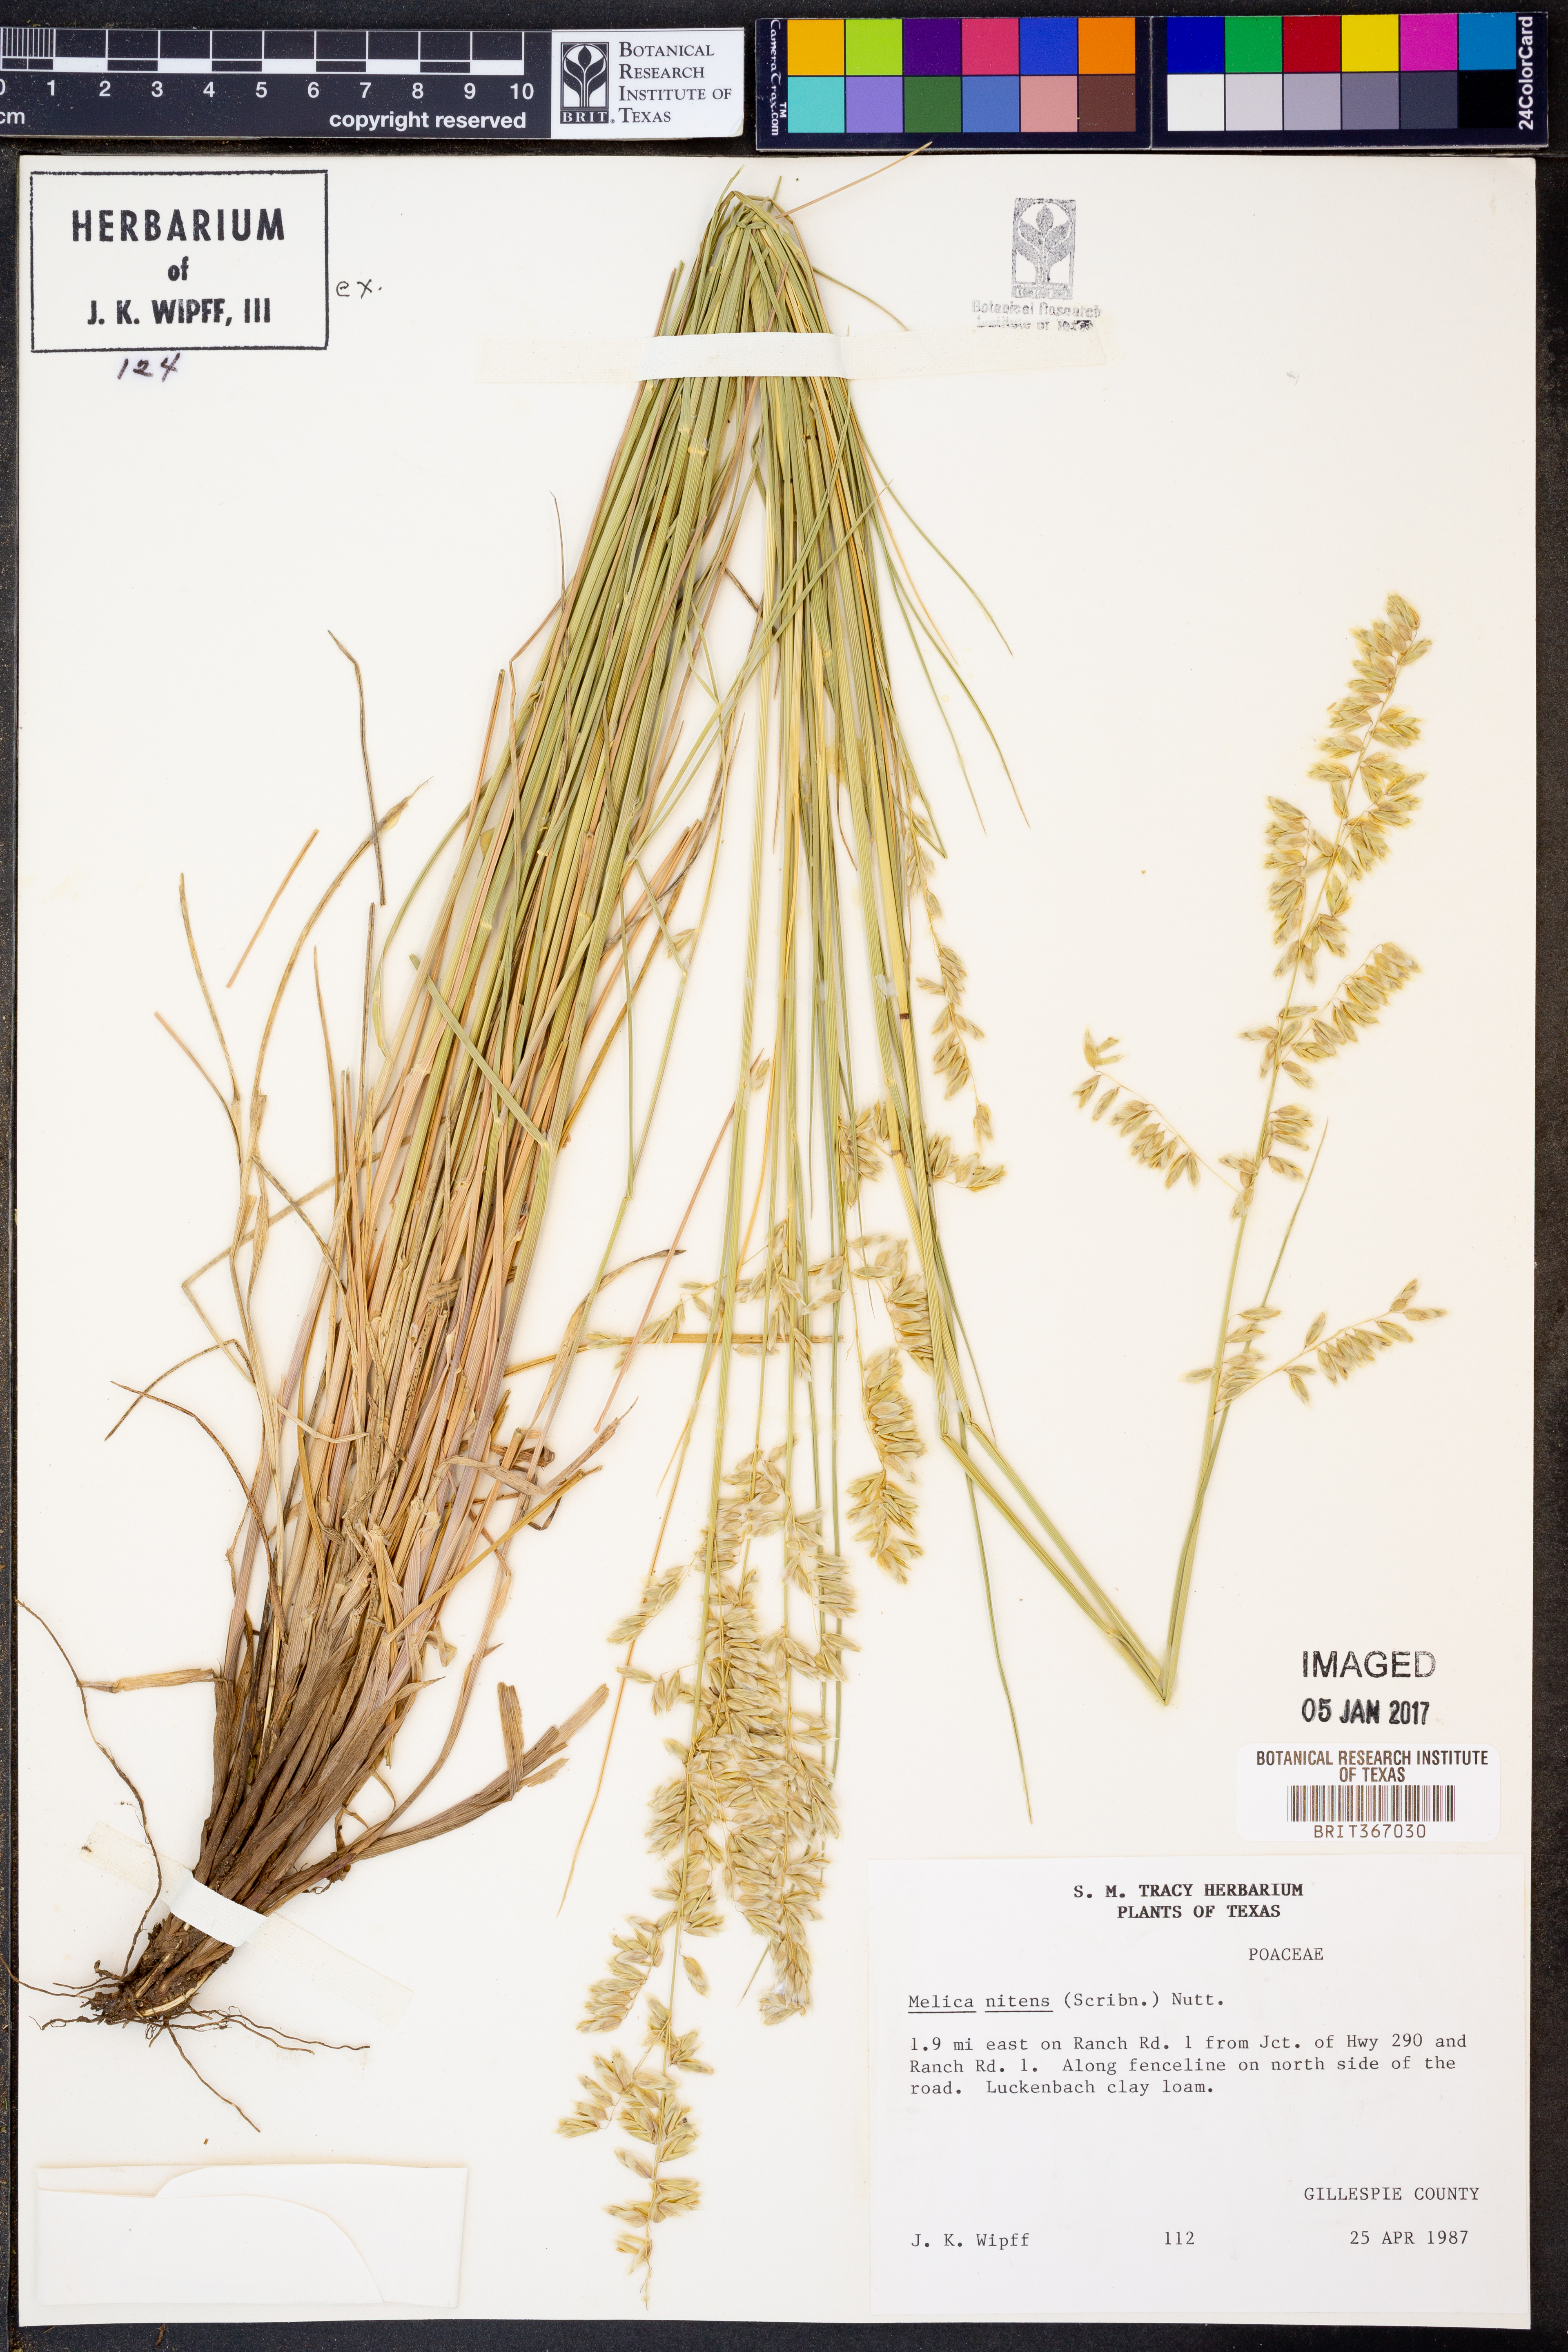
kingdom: Plantae
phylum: Tracheophyta
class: Liliopsida
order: Poales
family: Poaceae
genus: Melica
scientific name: Melica nitens
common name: Three-flower melic
